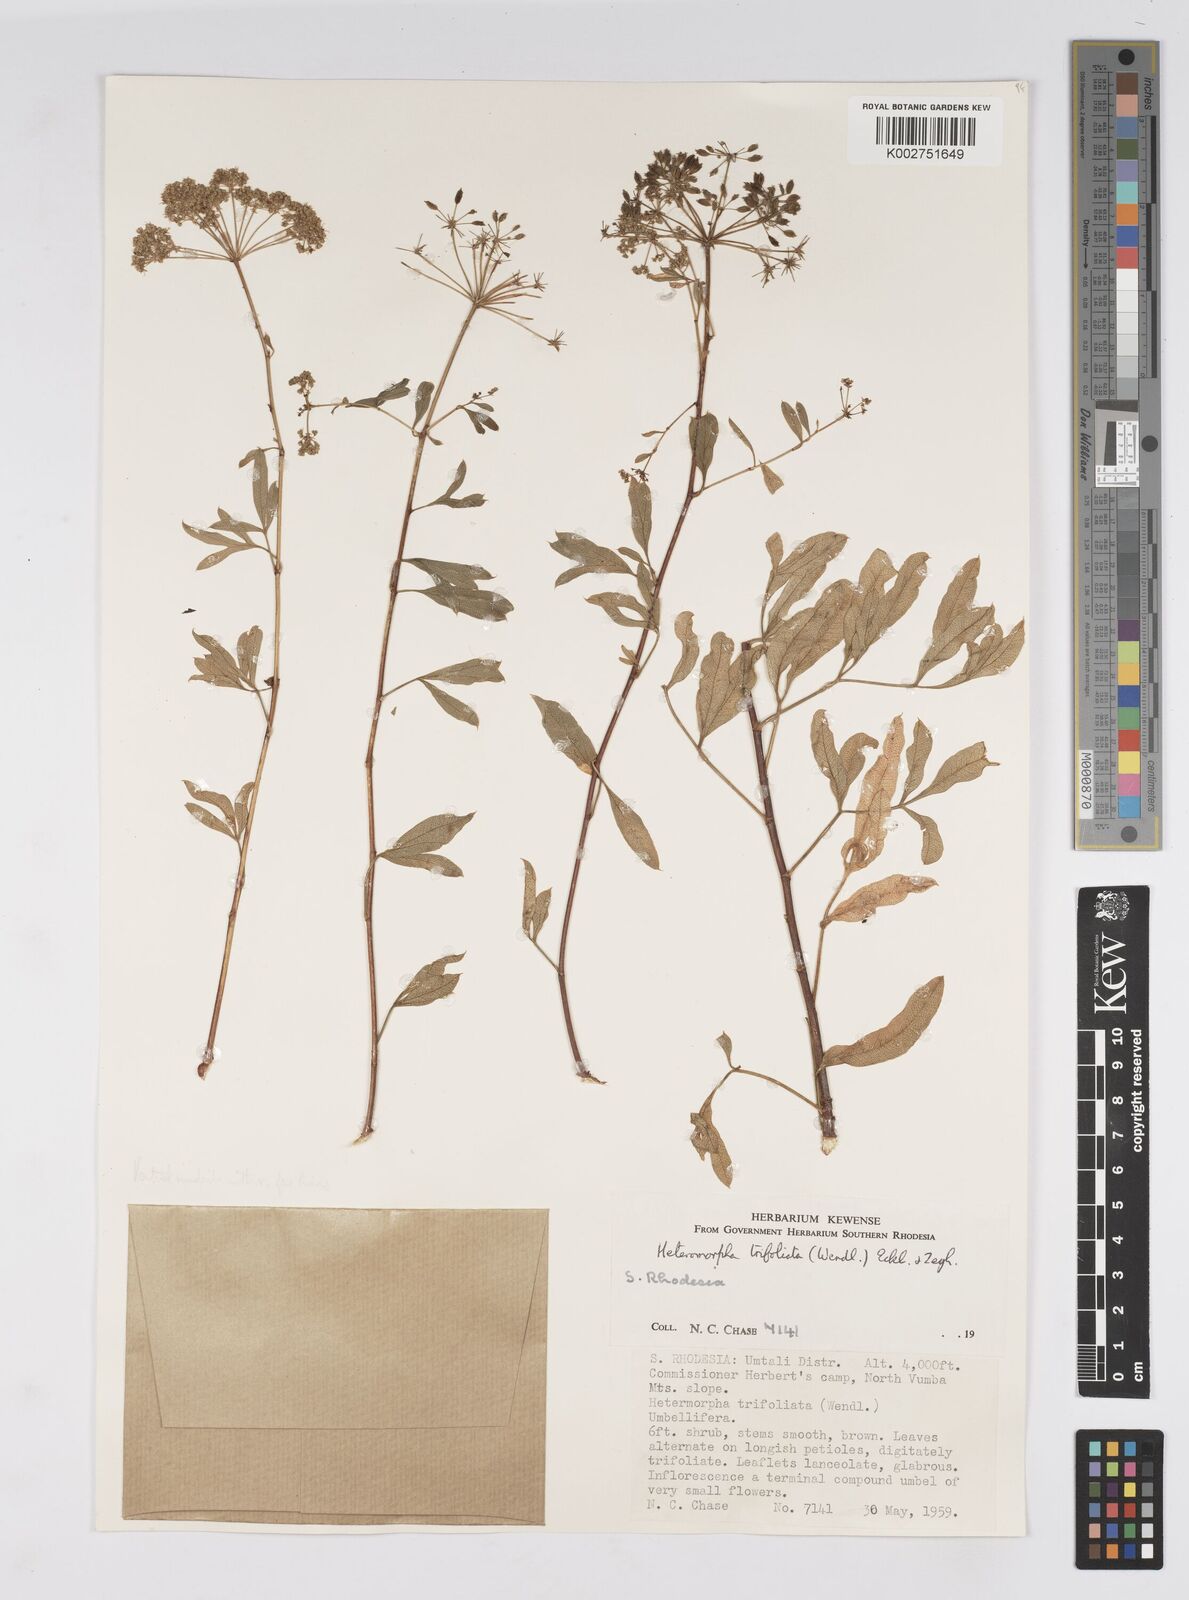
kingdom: Plantae
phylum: Tracheophyta
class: Magnoliopsida
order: Apiales
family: Apiaceae
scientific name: Apiaceae
